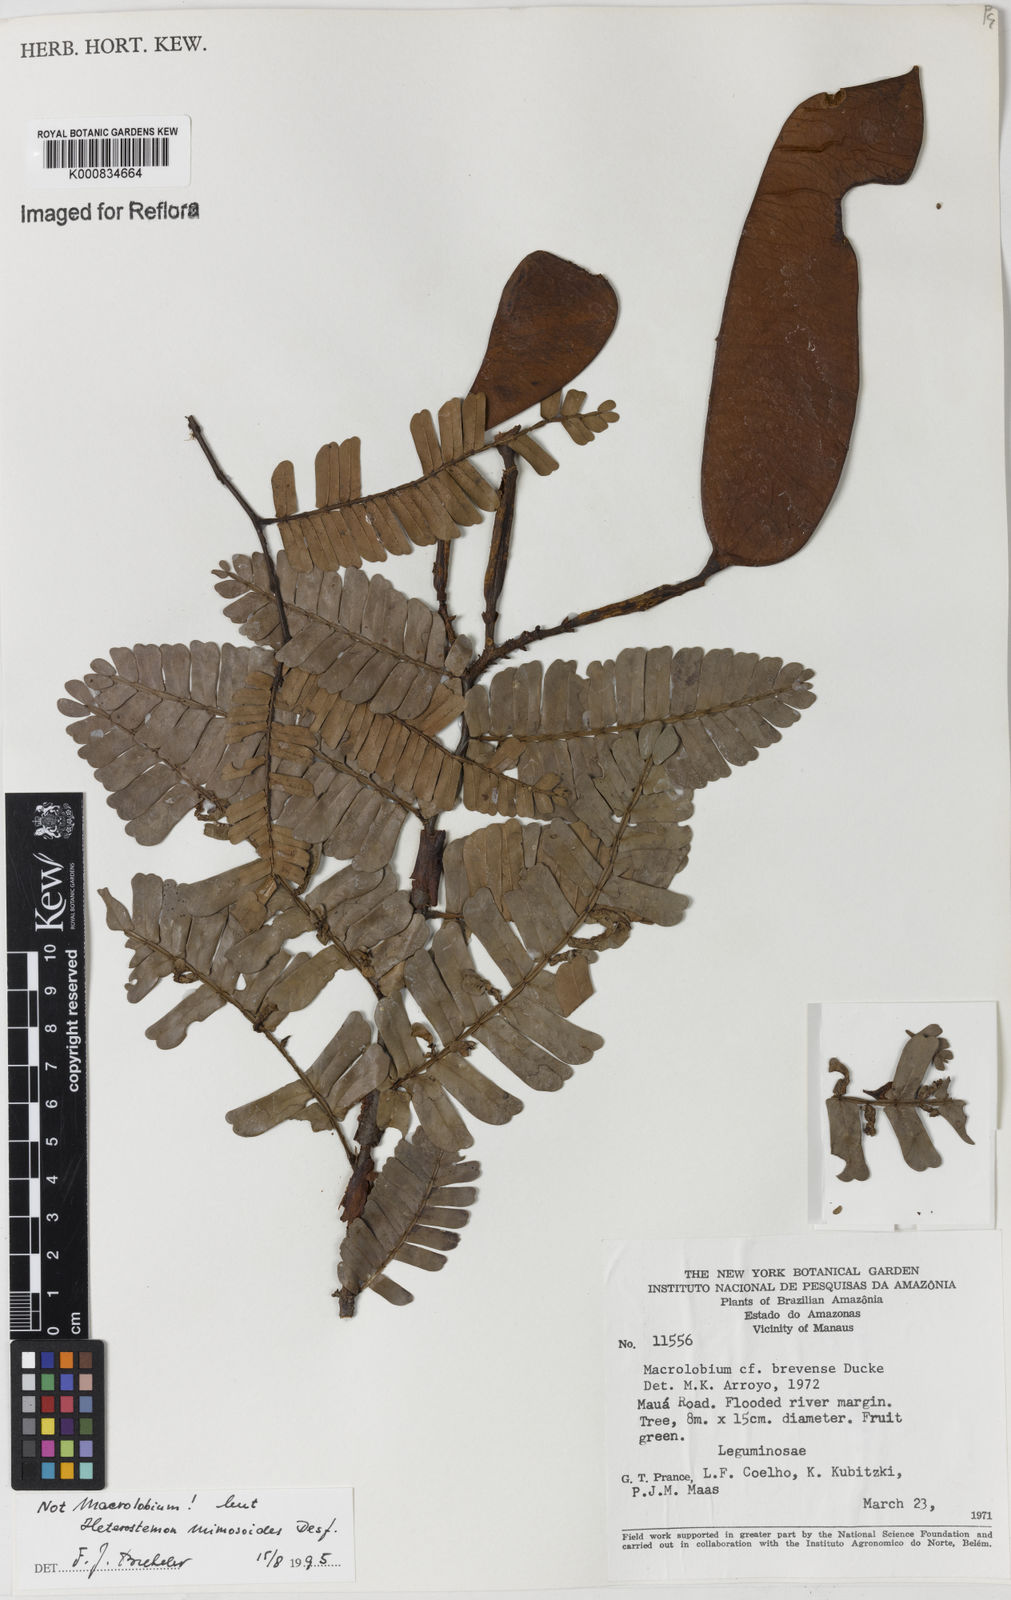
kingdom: Plantae
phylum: Tracheophyta
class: Magnoliopsida
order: Fabales
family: Fabaceae
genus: Heterostemon
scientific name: Heterostemon mimosoides
